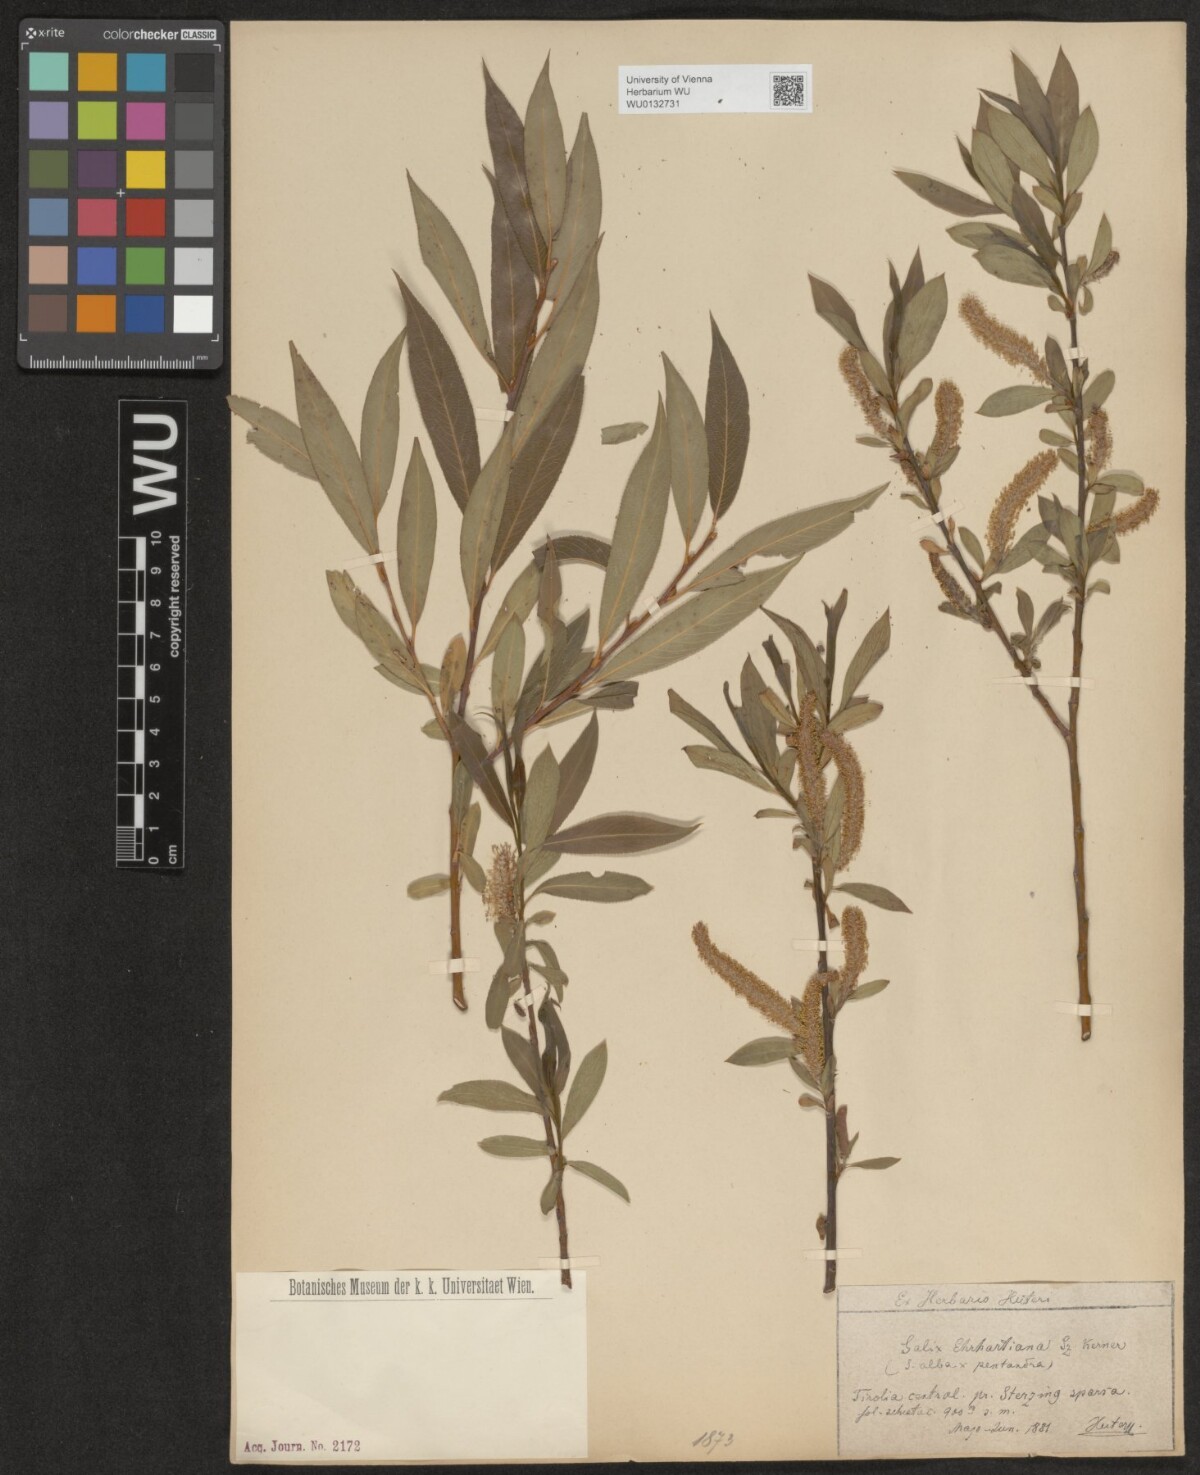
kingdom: Plantae
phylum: Tracheophyta
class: Magnoliopsida
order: Malpighiales
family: Salicaceae
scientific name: Salicaceae
